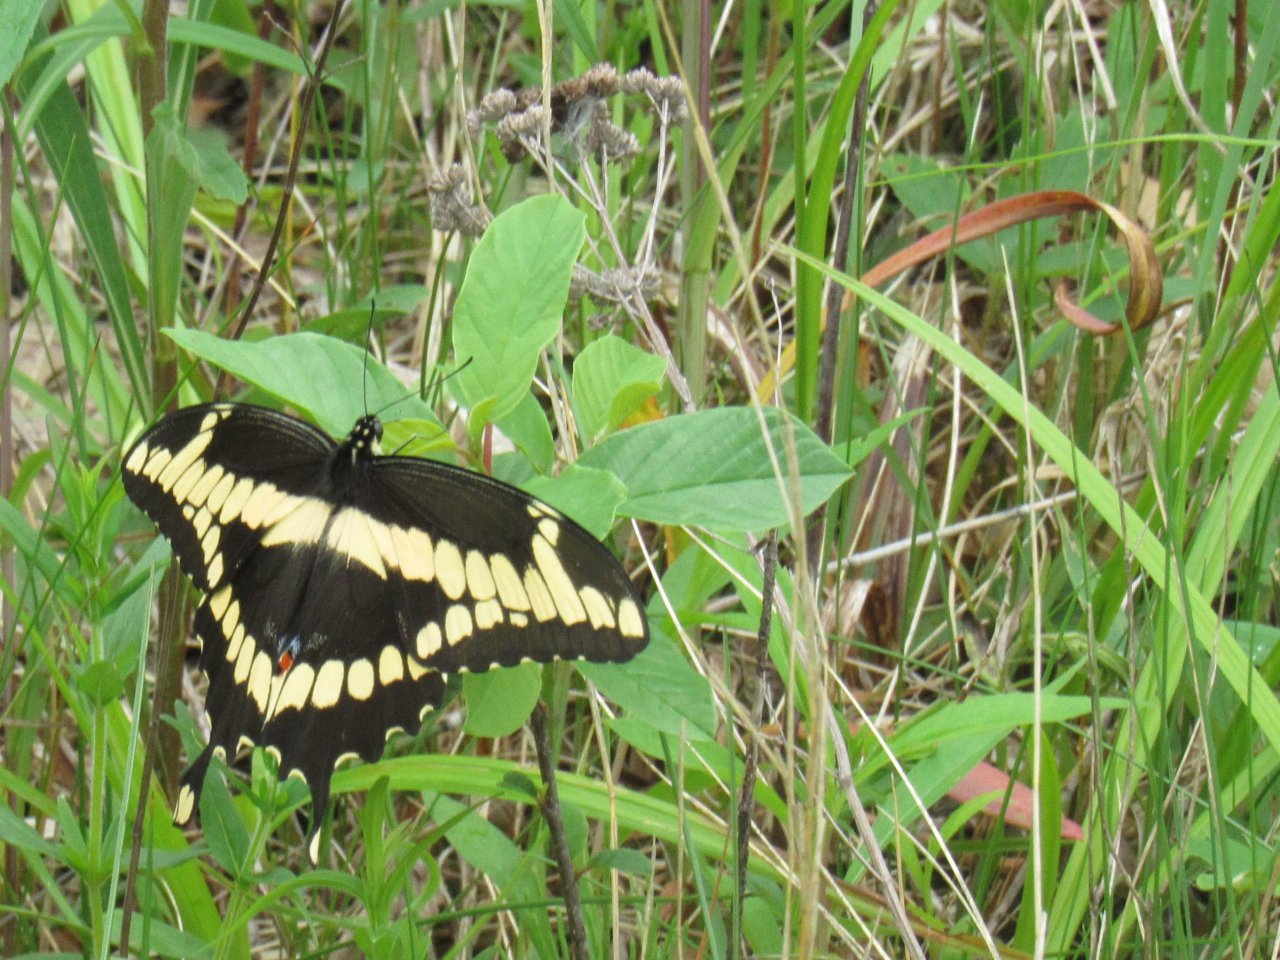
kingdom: Animalia
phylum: Arthropoda
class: Insecta
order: Lepidoptera
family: Papilionidae
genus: Papilio
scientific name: Papilio cresphontes
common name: Eastern Giant Swallowtail
